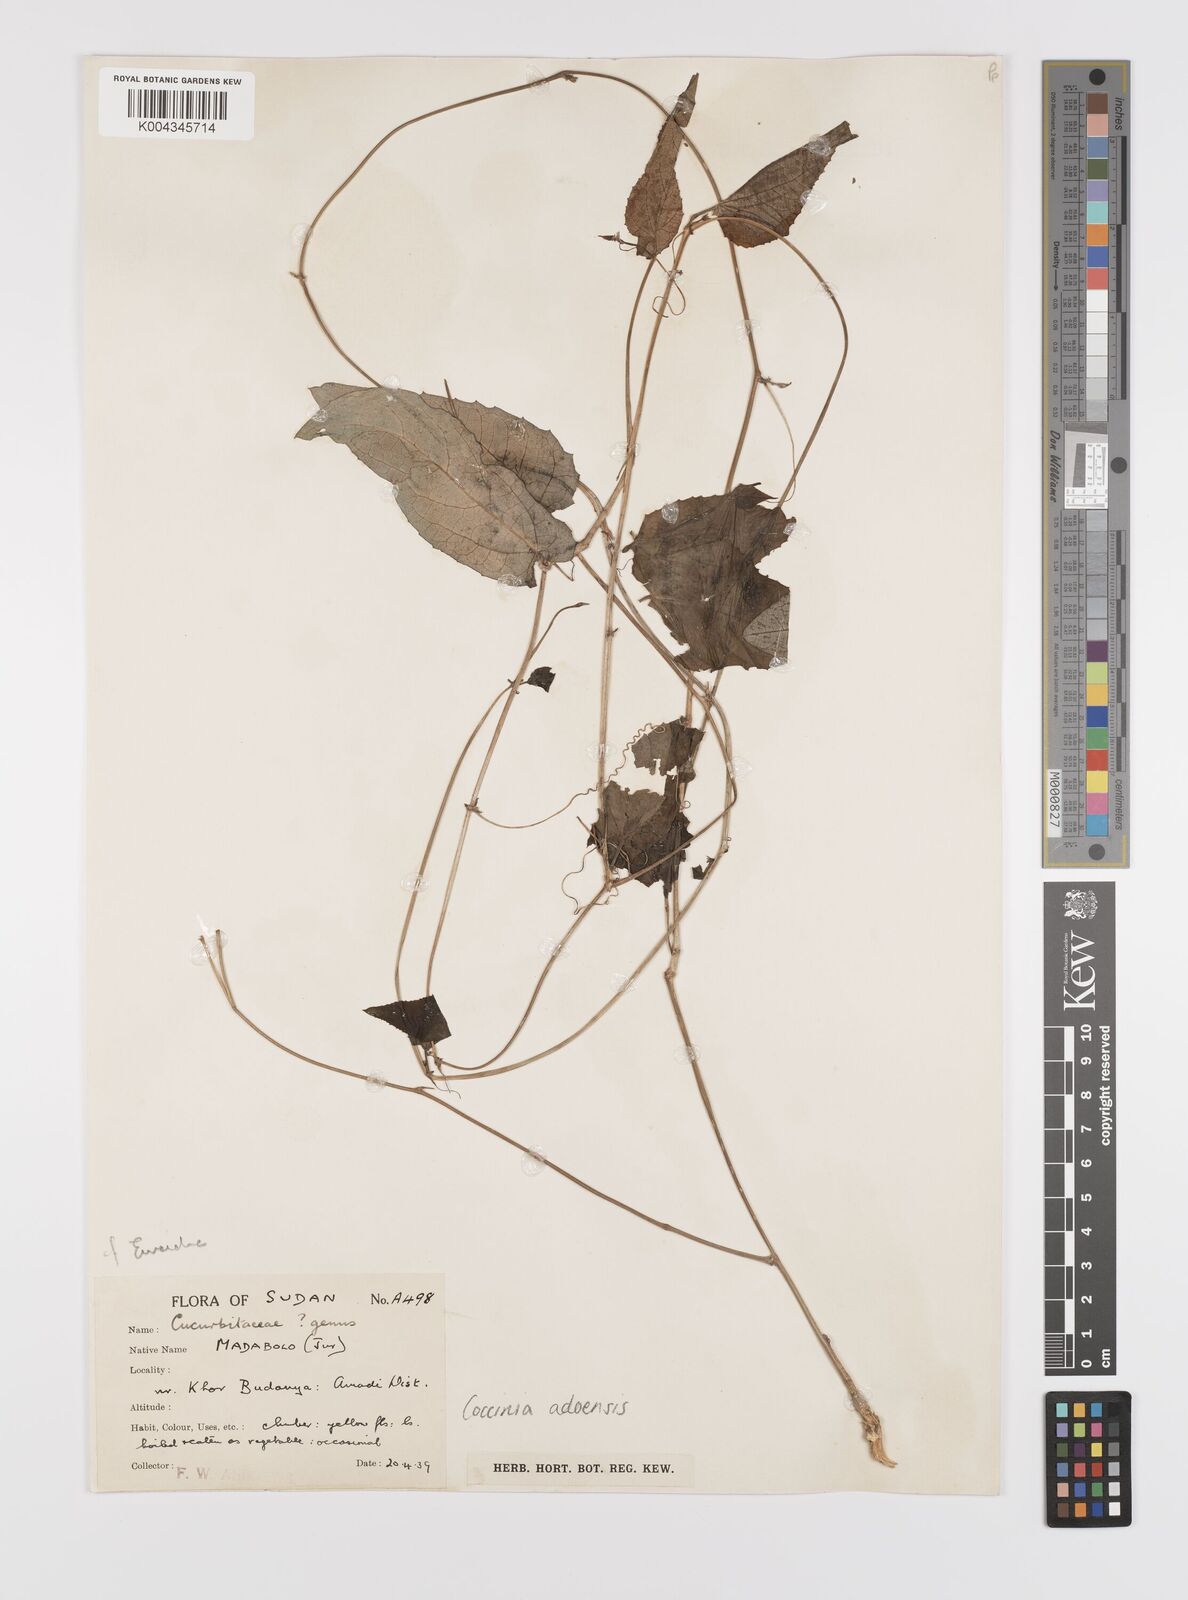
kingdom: Plantae
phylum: Tracheophyta
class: Magnoliopsida
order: Cucurbitales
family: Cucurbitaceae
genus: Coccinia
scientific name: Coccinia adoensis
